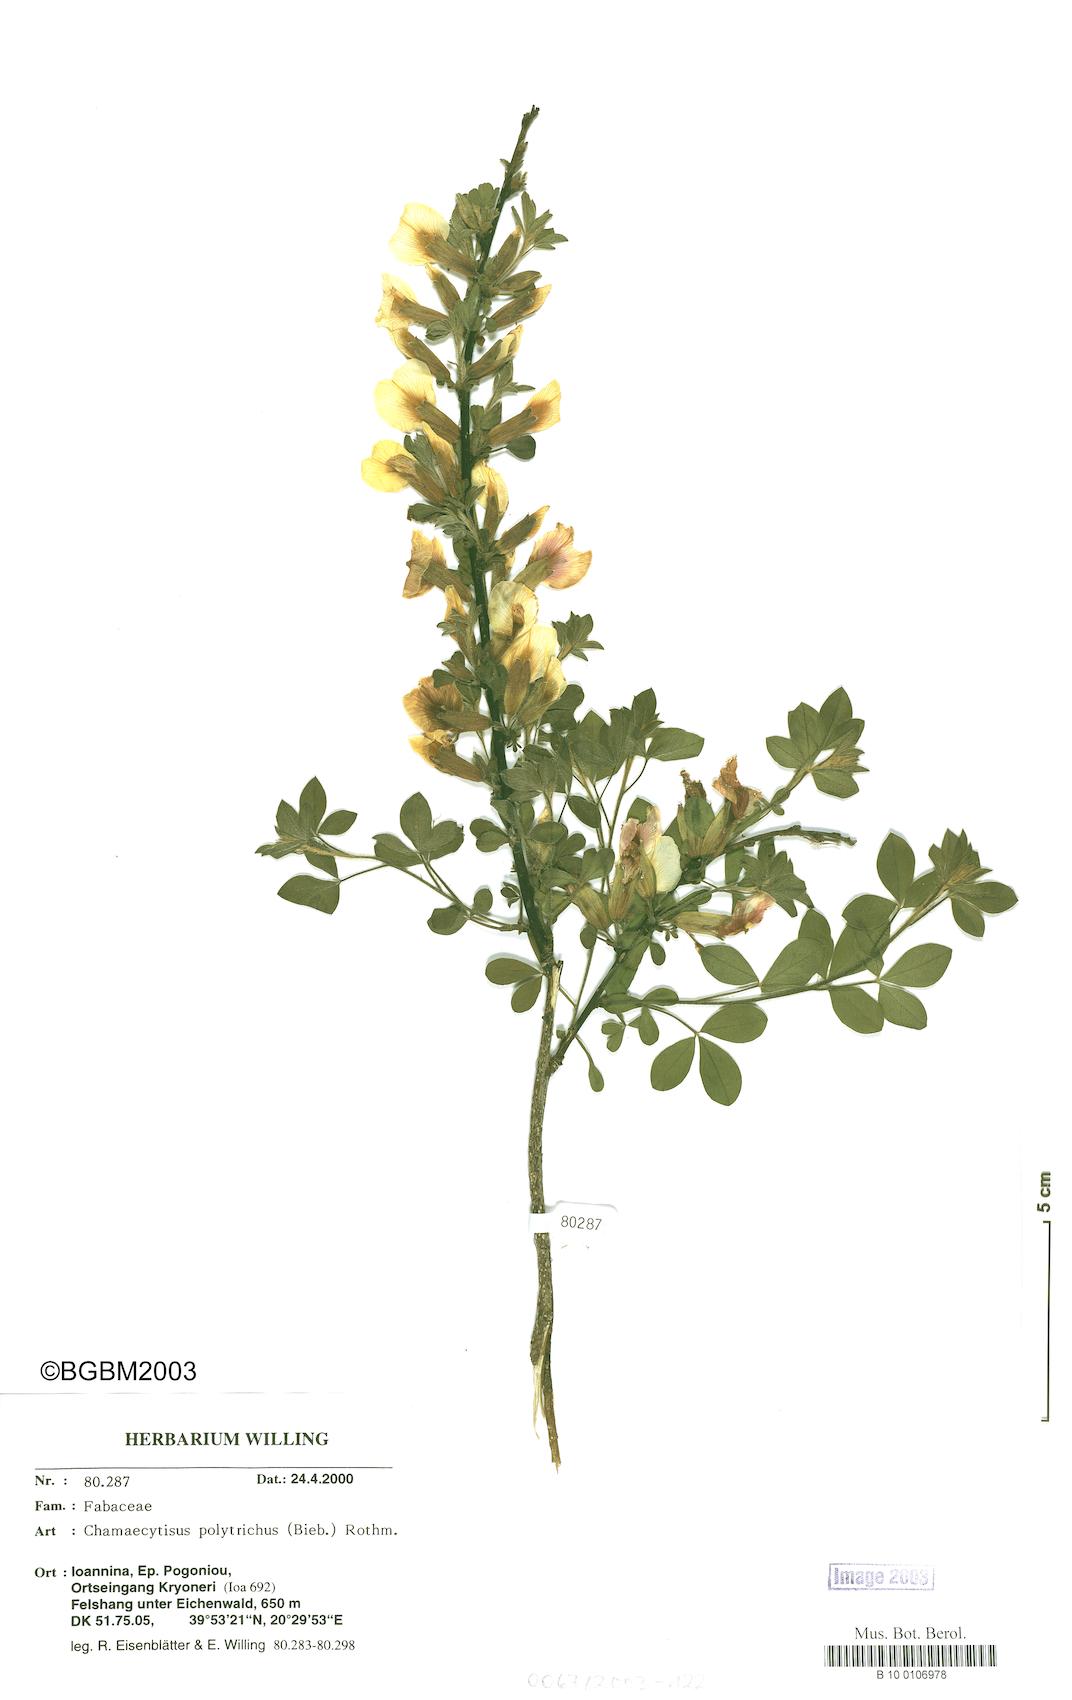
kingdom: Plantae
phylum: Tracheophyta
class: Magnoliopsida
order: Fabales
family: Fabaceae
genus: Chamaecytisus
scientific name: Chamaecytisus hirsutus
